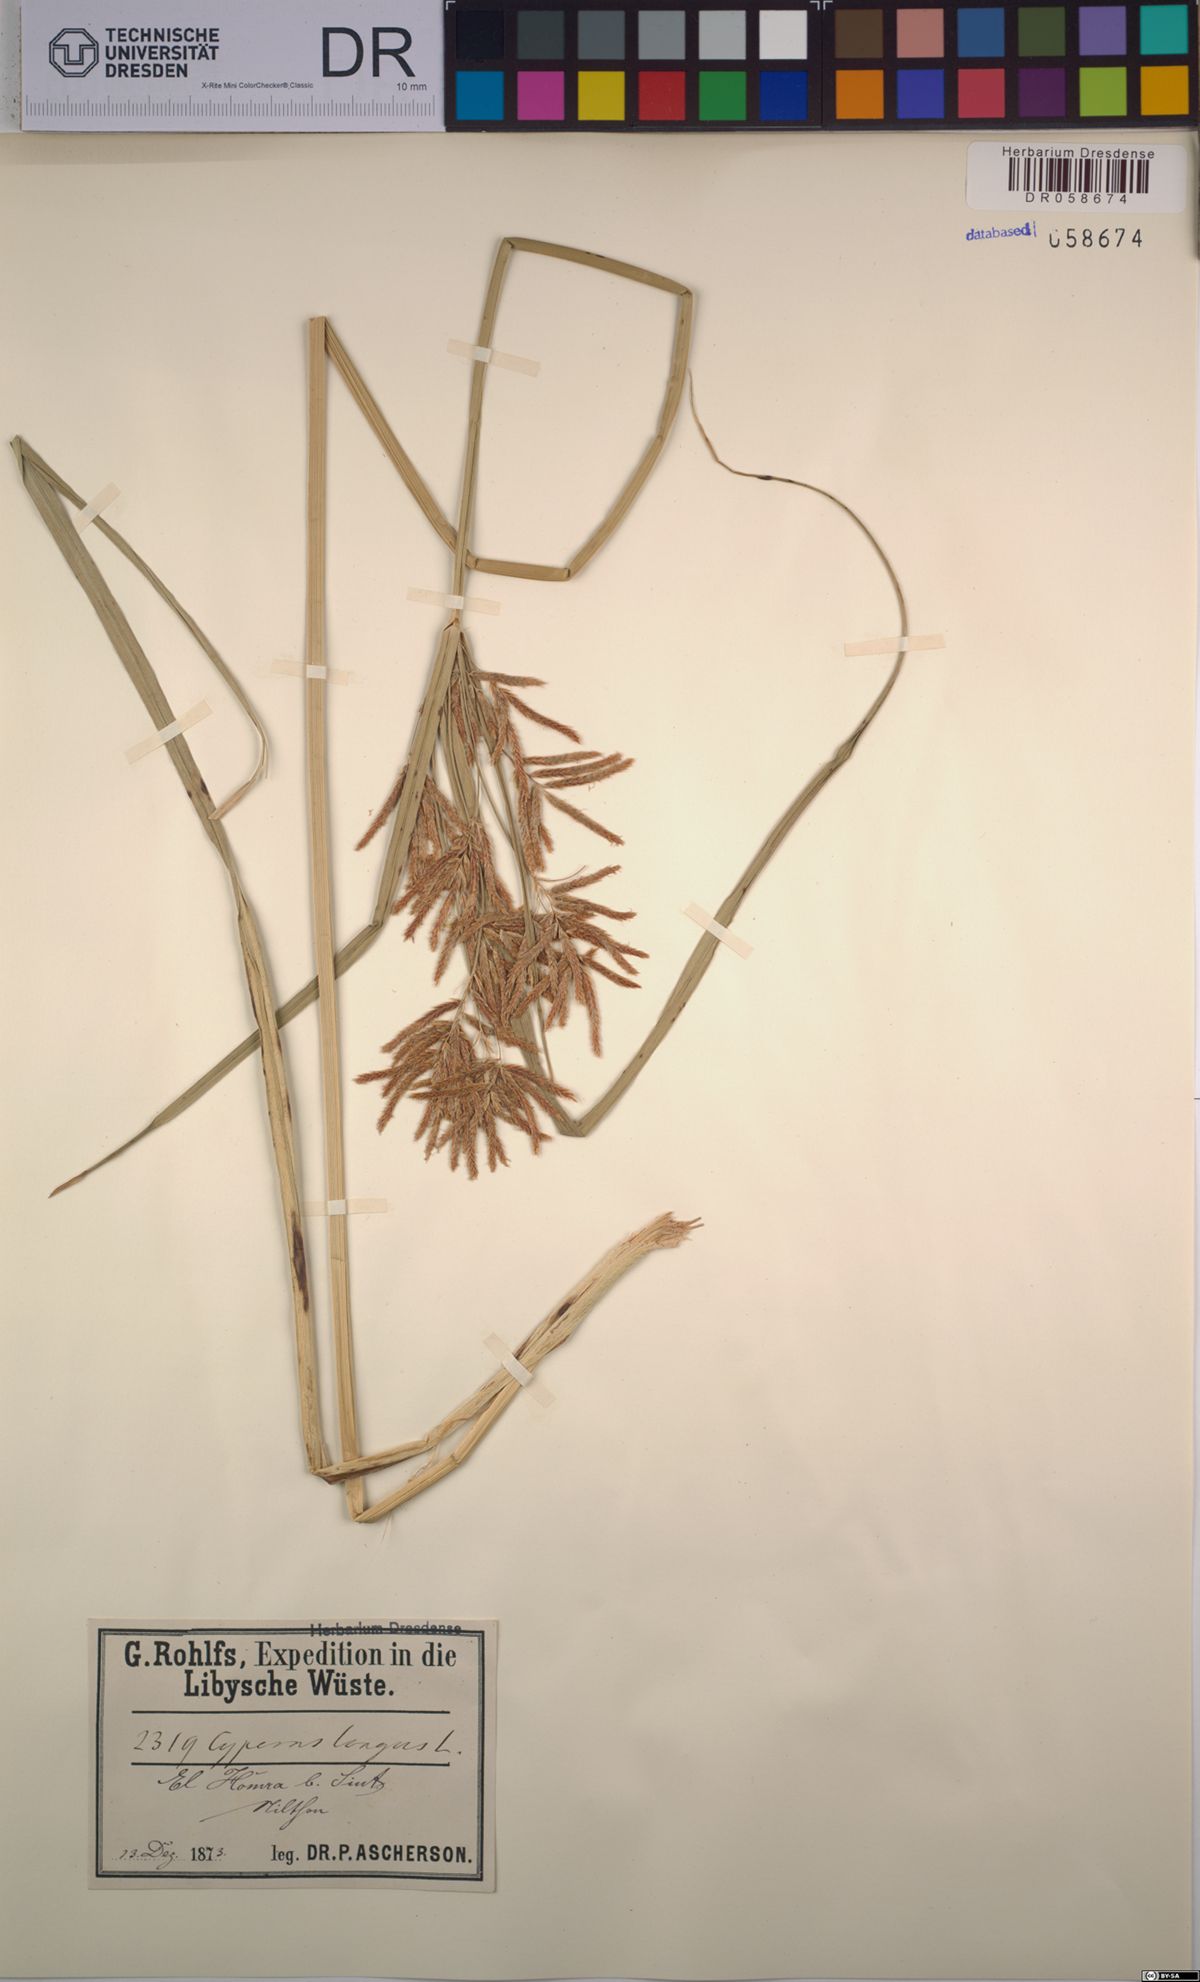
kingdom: Plantae
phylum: Tracheophyta
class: Liliopsida
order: Poales
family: Cyperaceae
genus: Cyperus
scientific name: Cyperus longus
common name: Galingale
